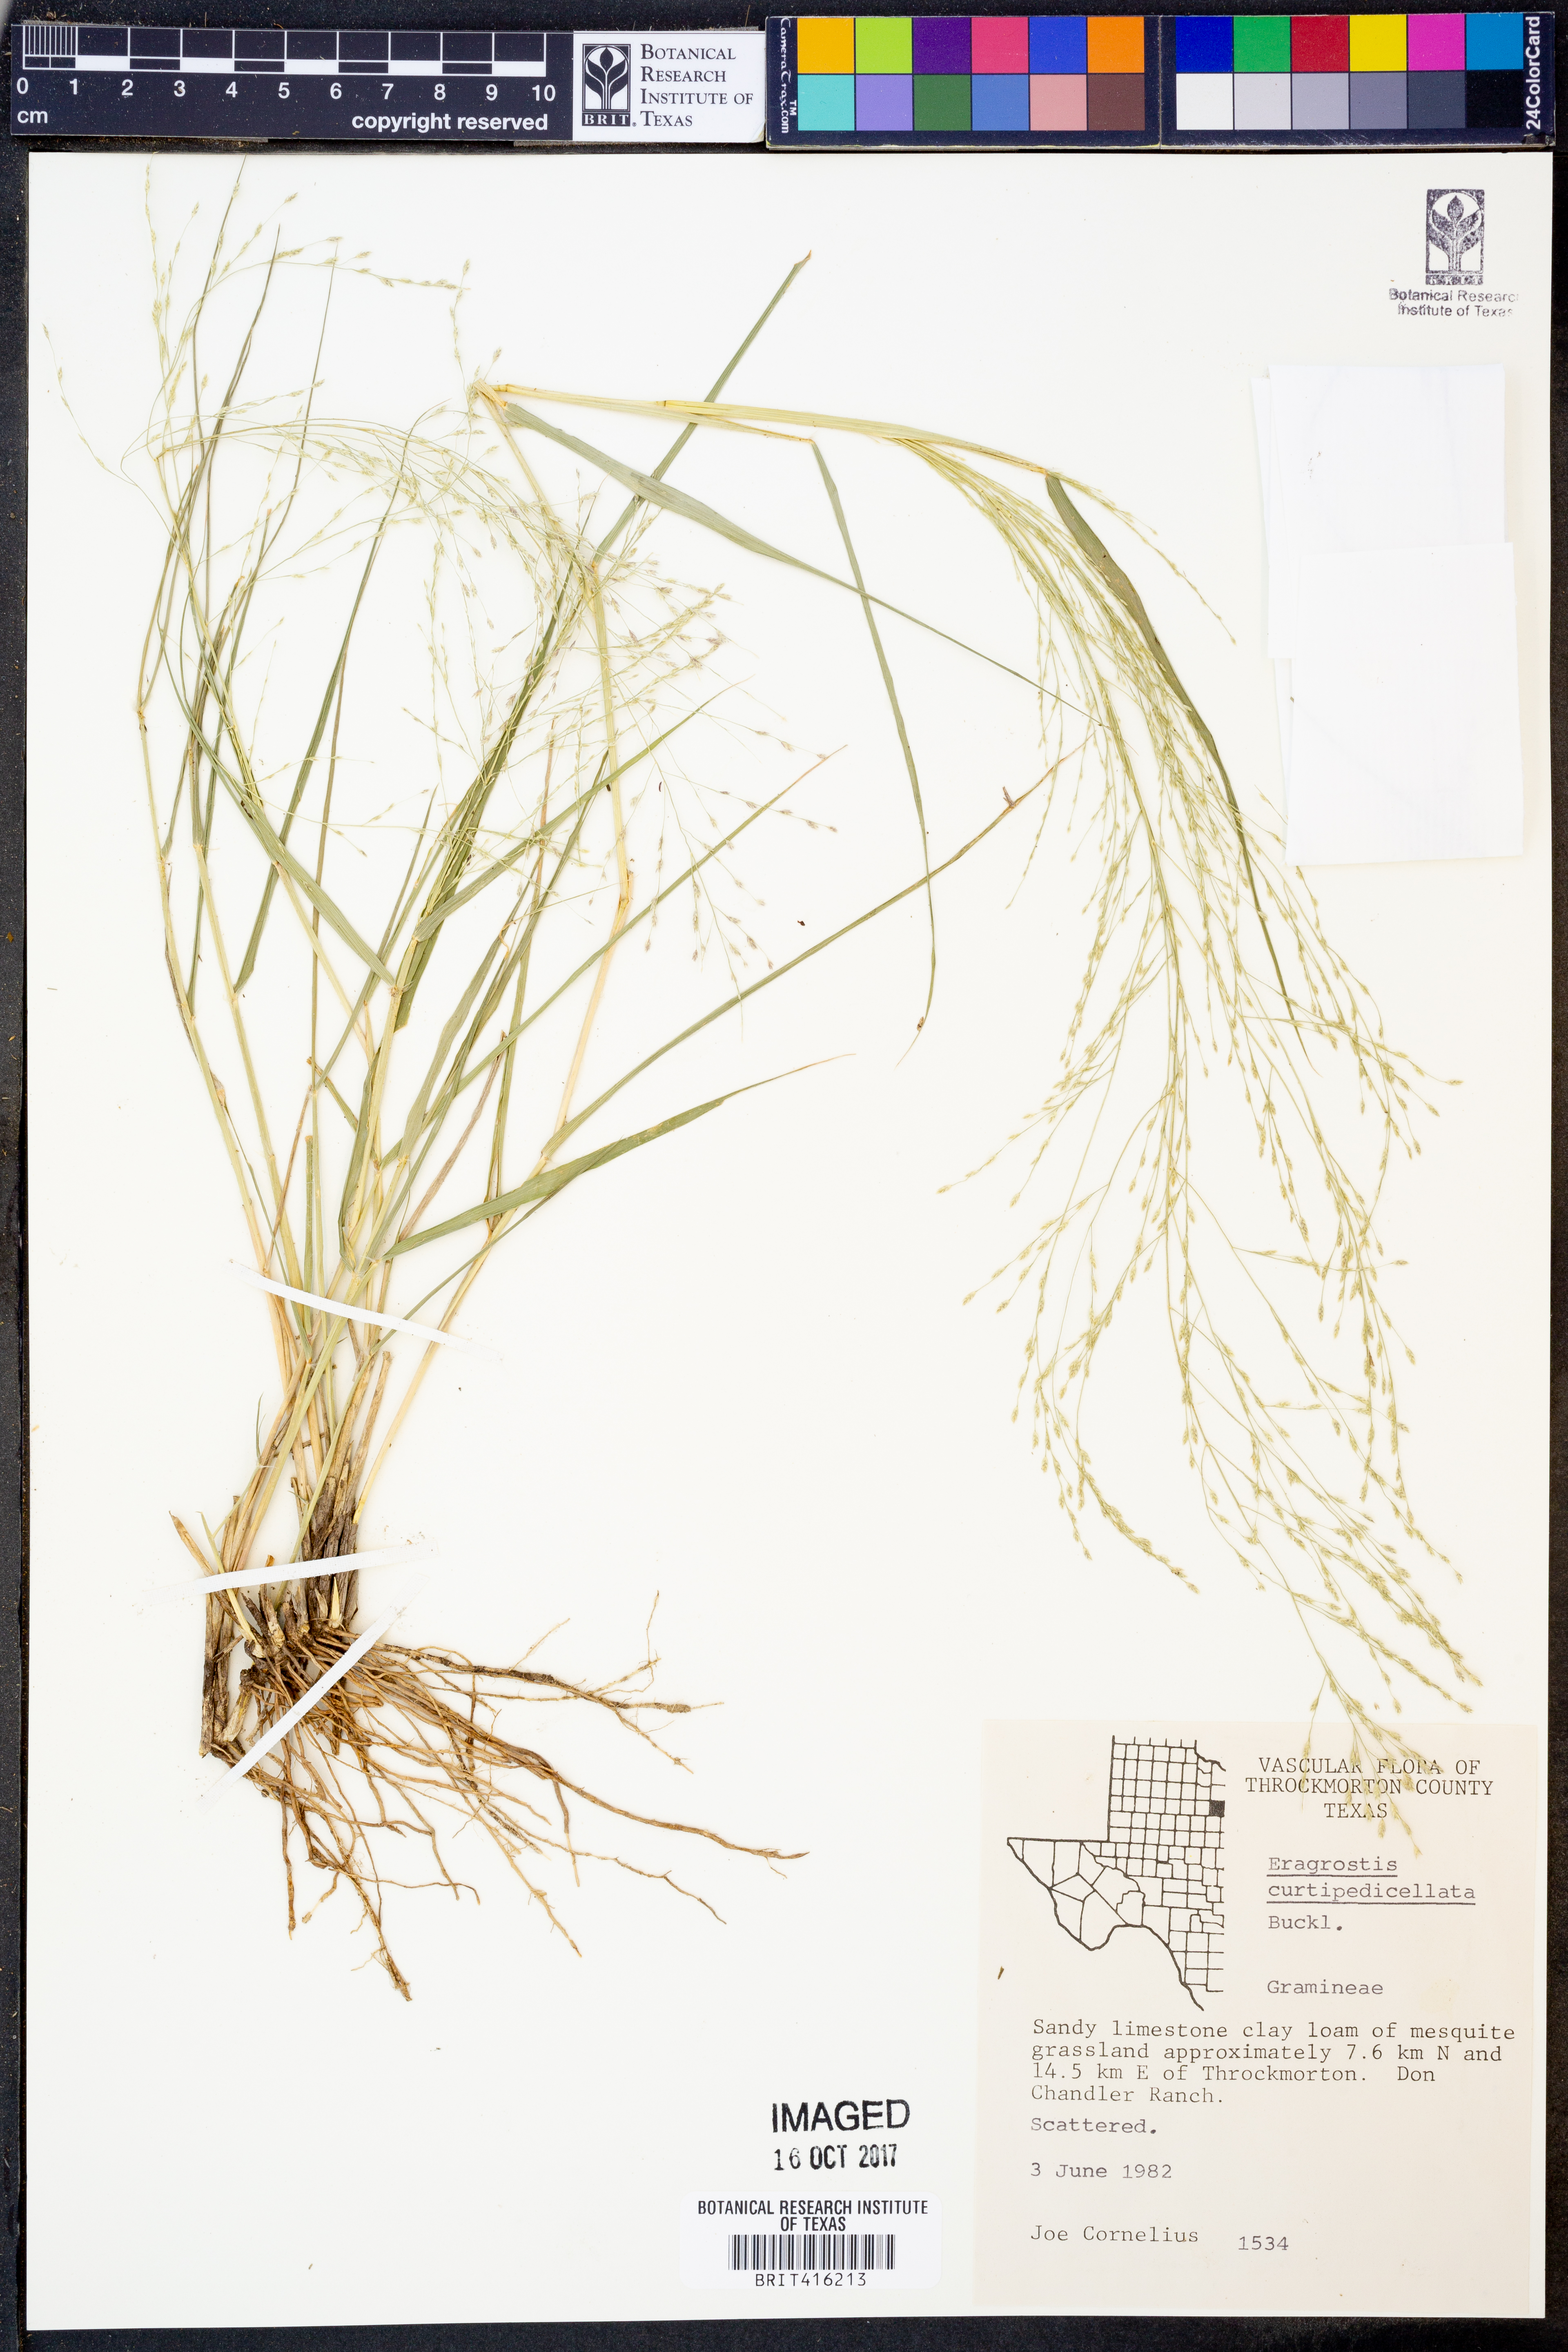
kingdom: Plantae
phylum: Tracheophyta
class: Liliopsida
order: Poales
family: Poaceae
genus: Eragrostis
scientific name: Eragrostis curtipedicellata
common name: Gummy love grass
